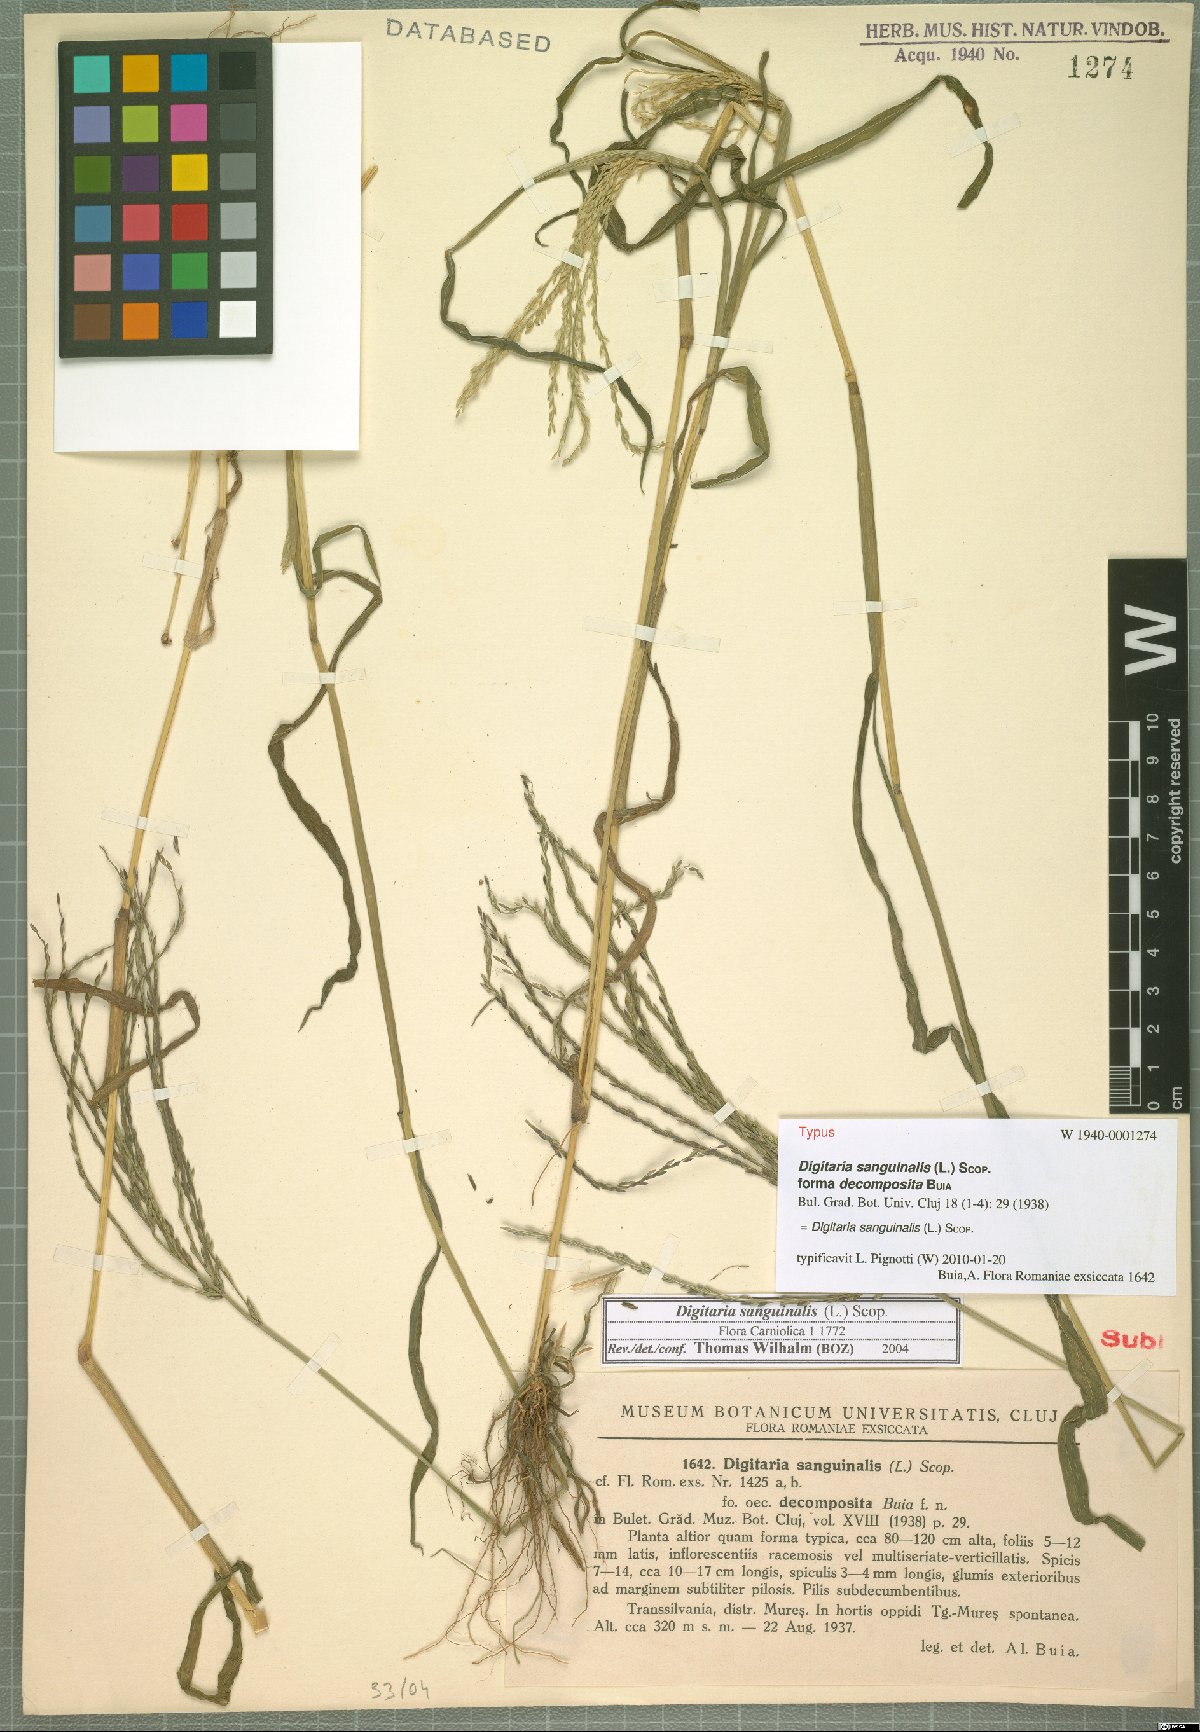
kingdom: Plantae
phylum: Tracheophyta
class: Liliopsida
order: Poales
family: Poaceae
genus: Digitaria
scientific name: Digitaria sanguinalis
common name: Hairy crabgrass
